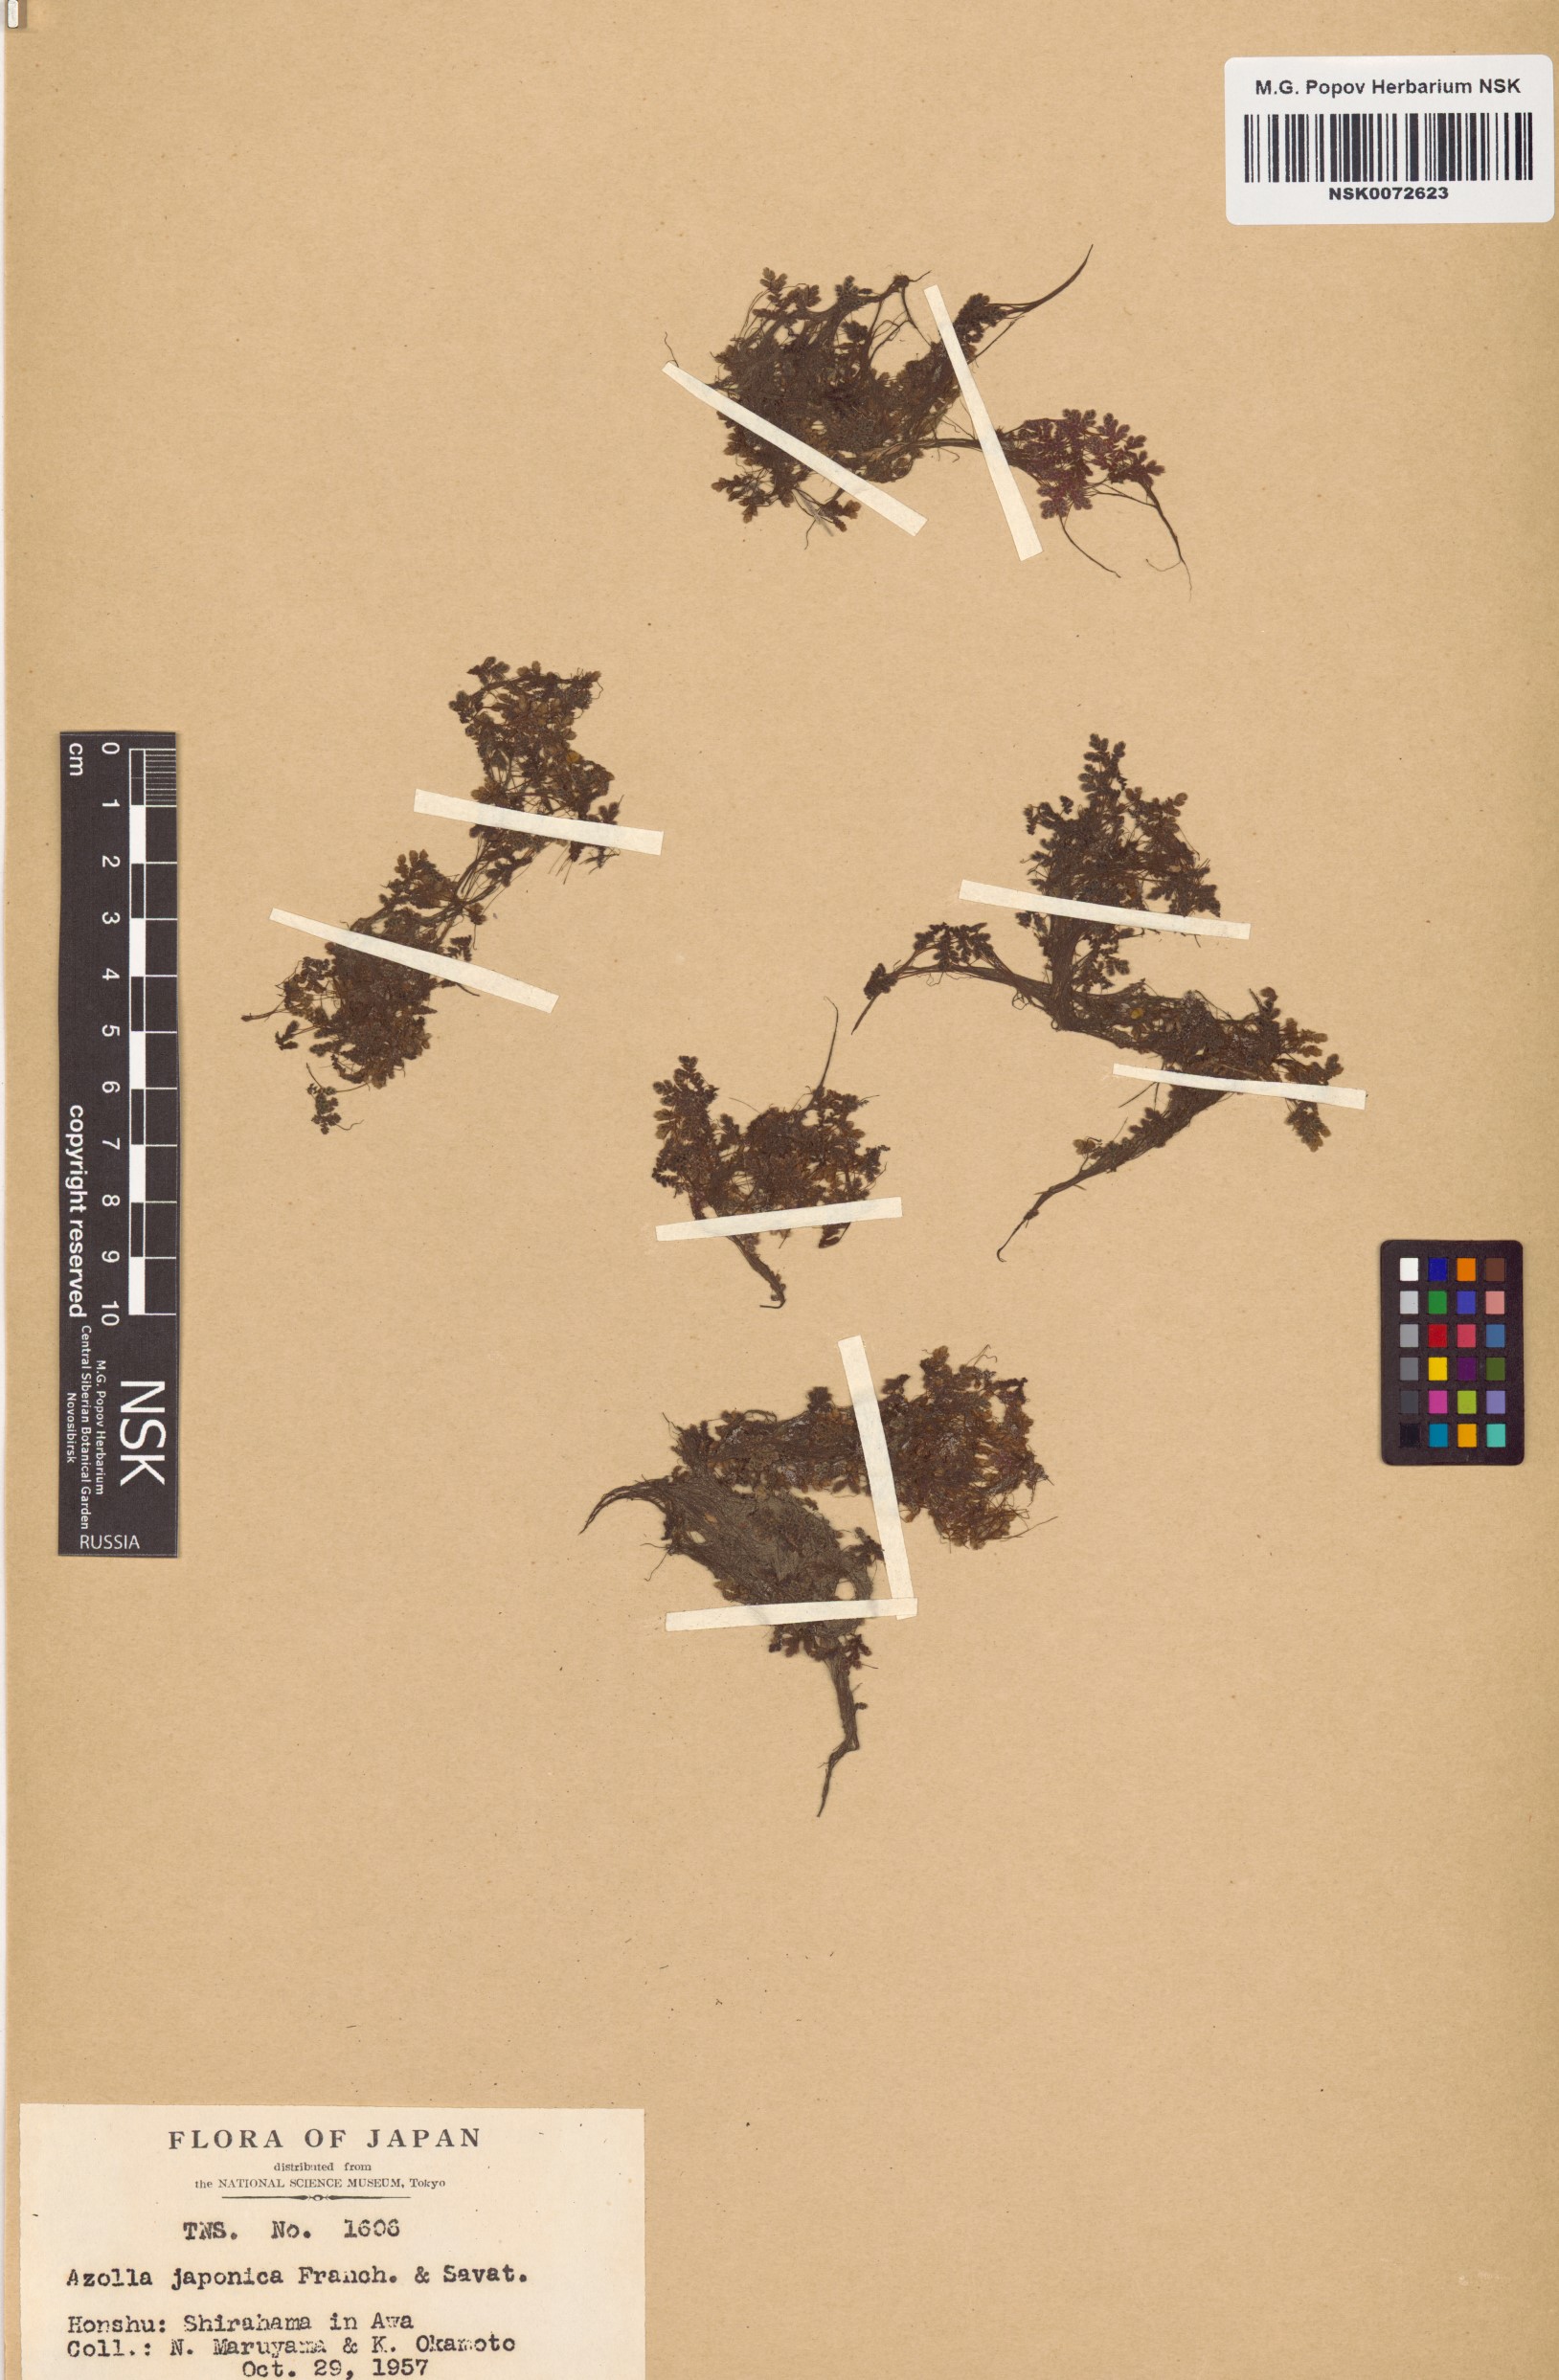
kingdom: Plantae
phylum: Tracheophyta
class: Polypodiopsida
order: Salviniales
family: Salviniaceae
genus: Azolla
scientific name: Azolla filiculoides
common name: Water fern
